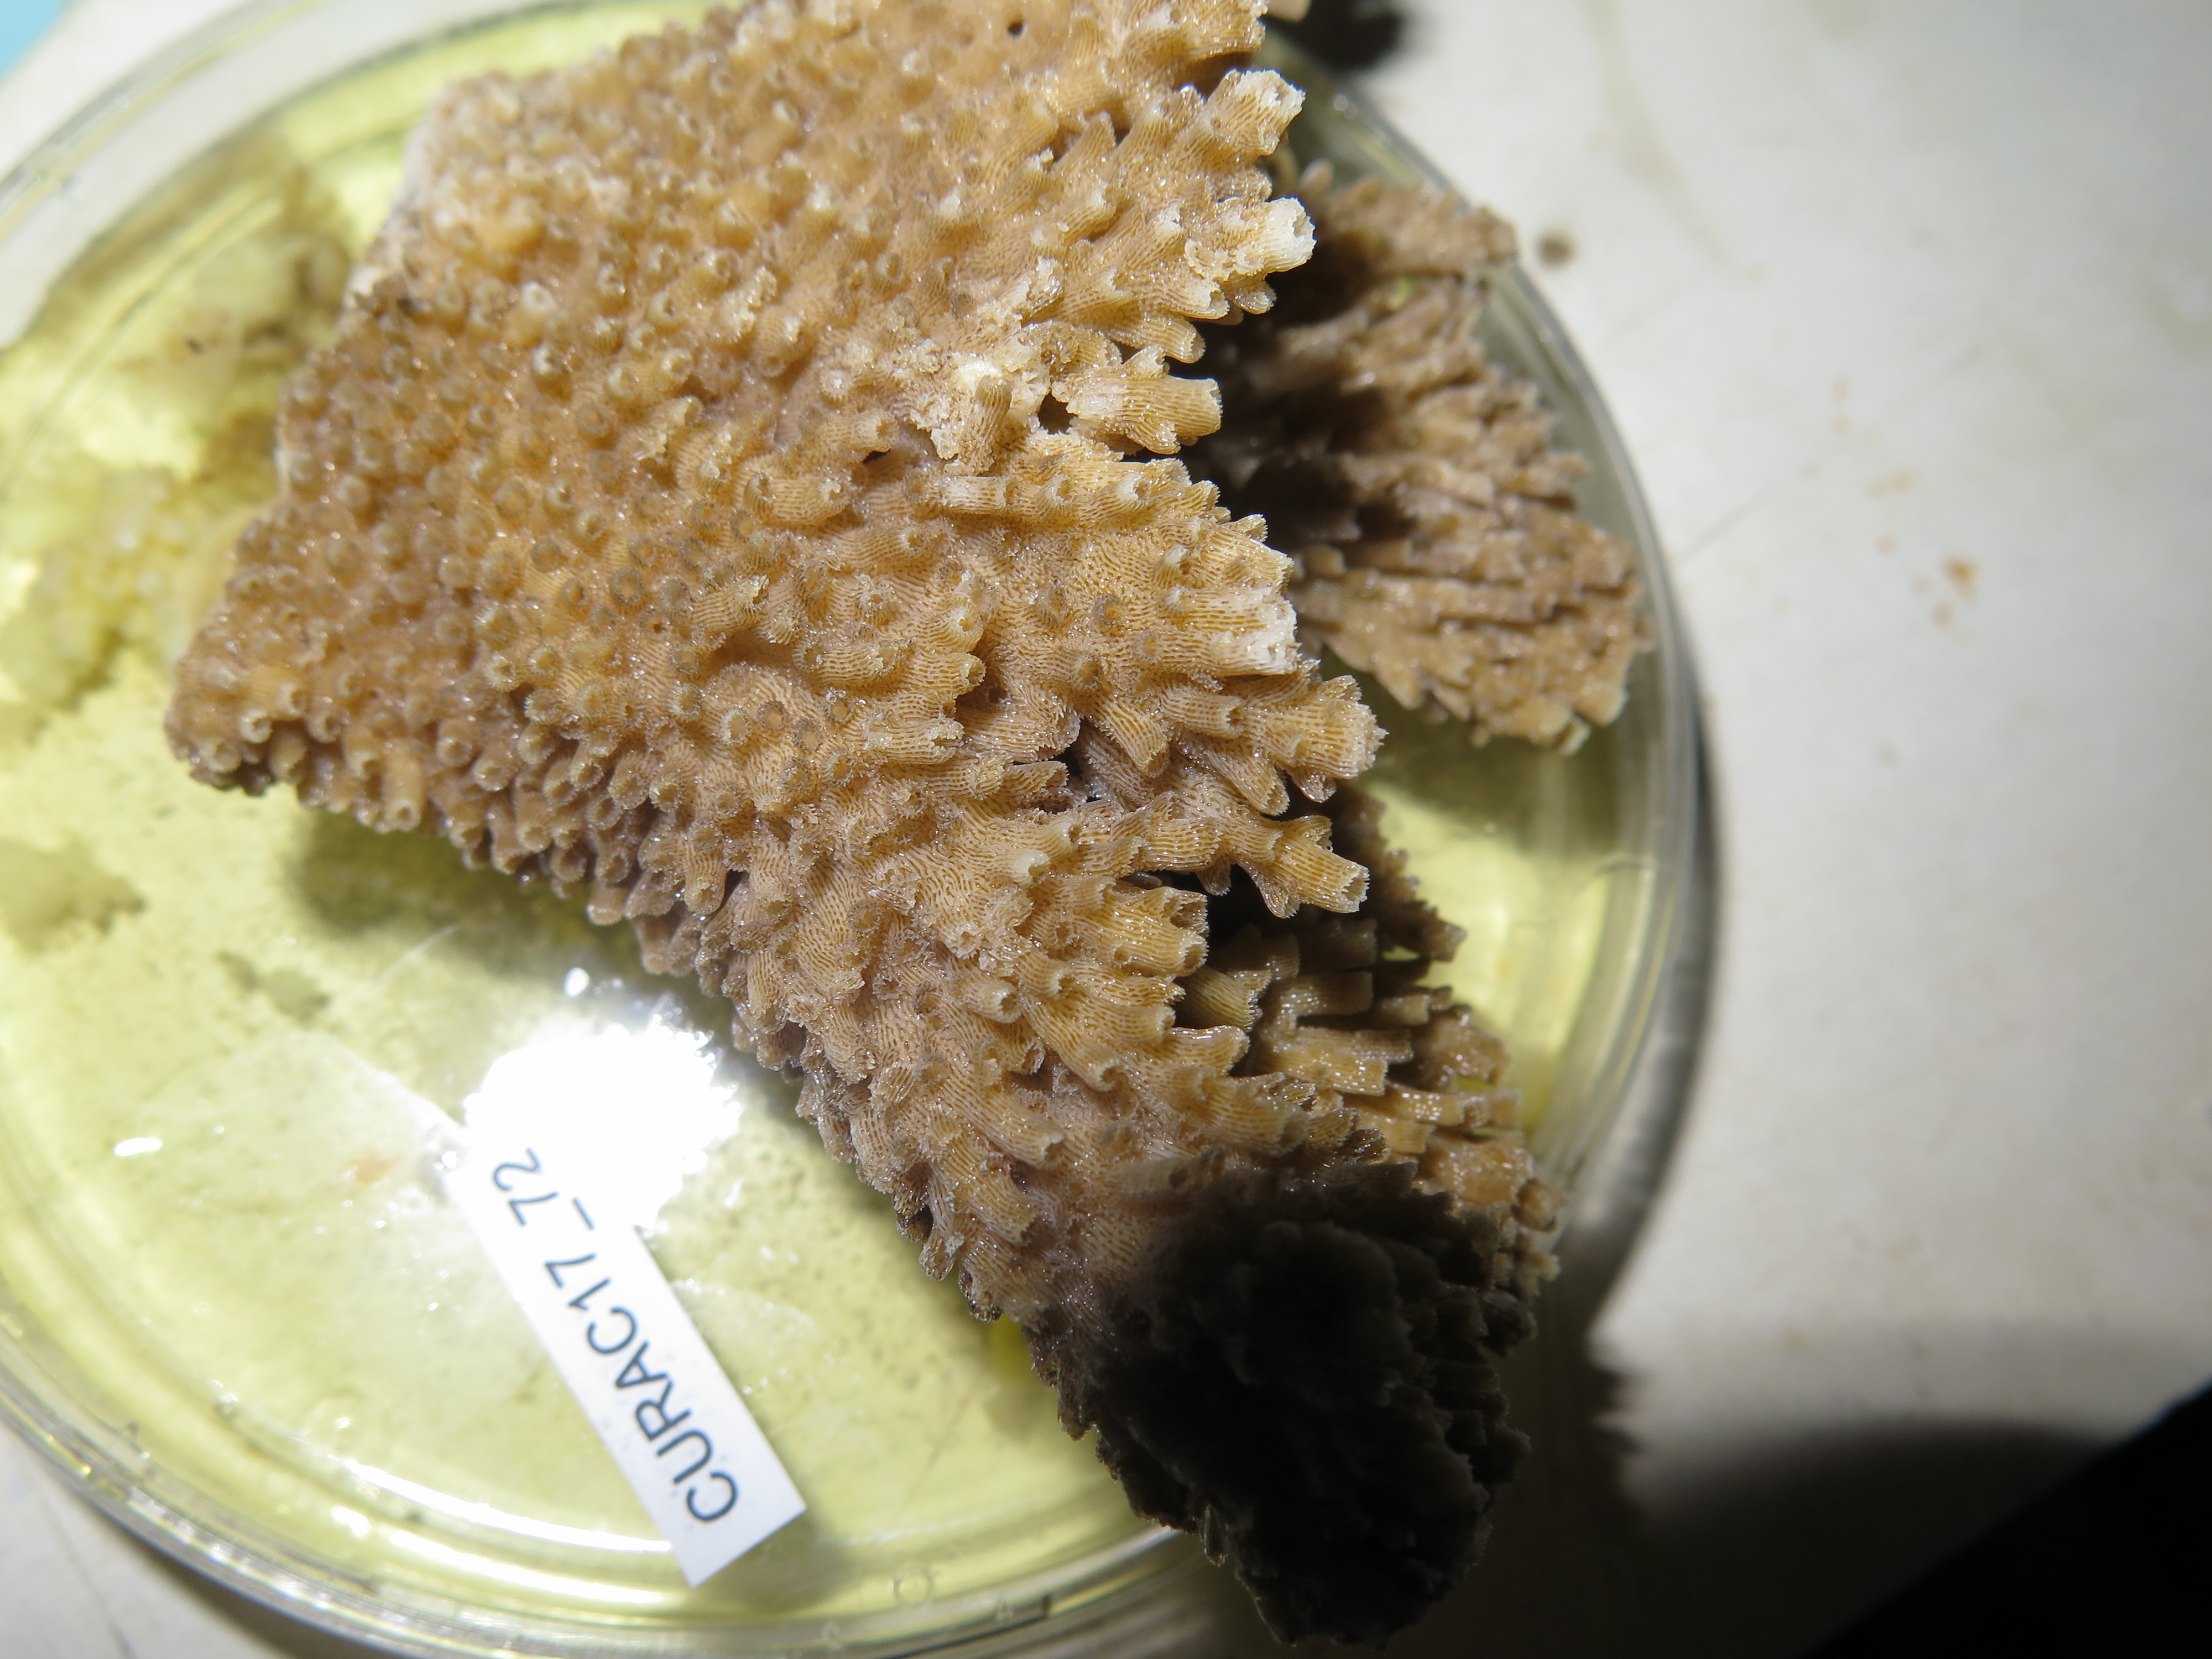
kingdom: Animalia
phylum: Cnidaria
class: Anthozoa
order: Scleractinia
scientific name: Scleractinia
